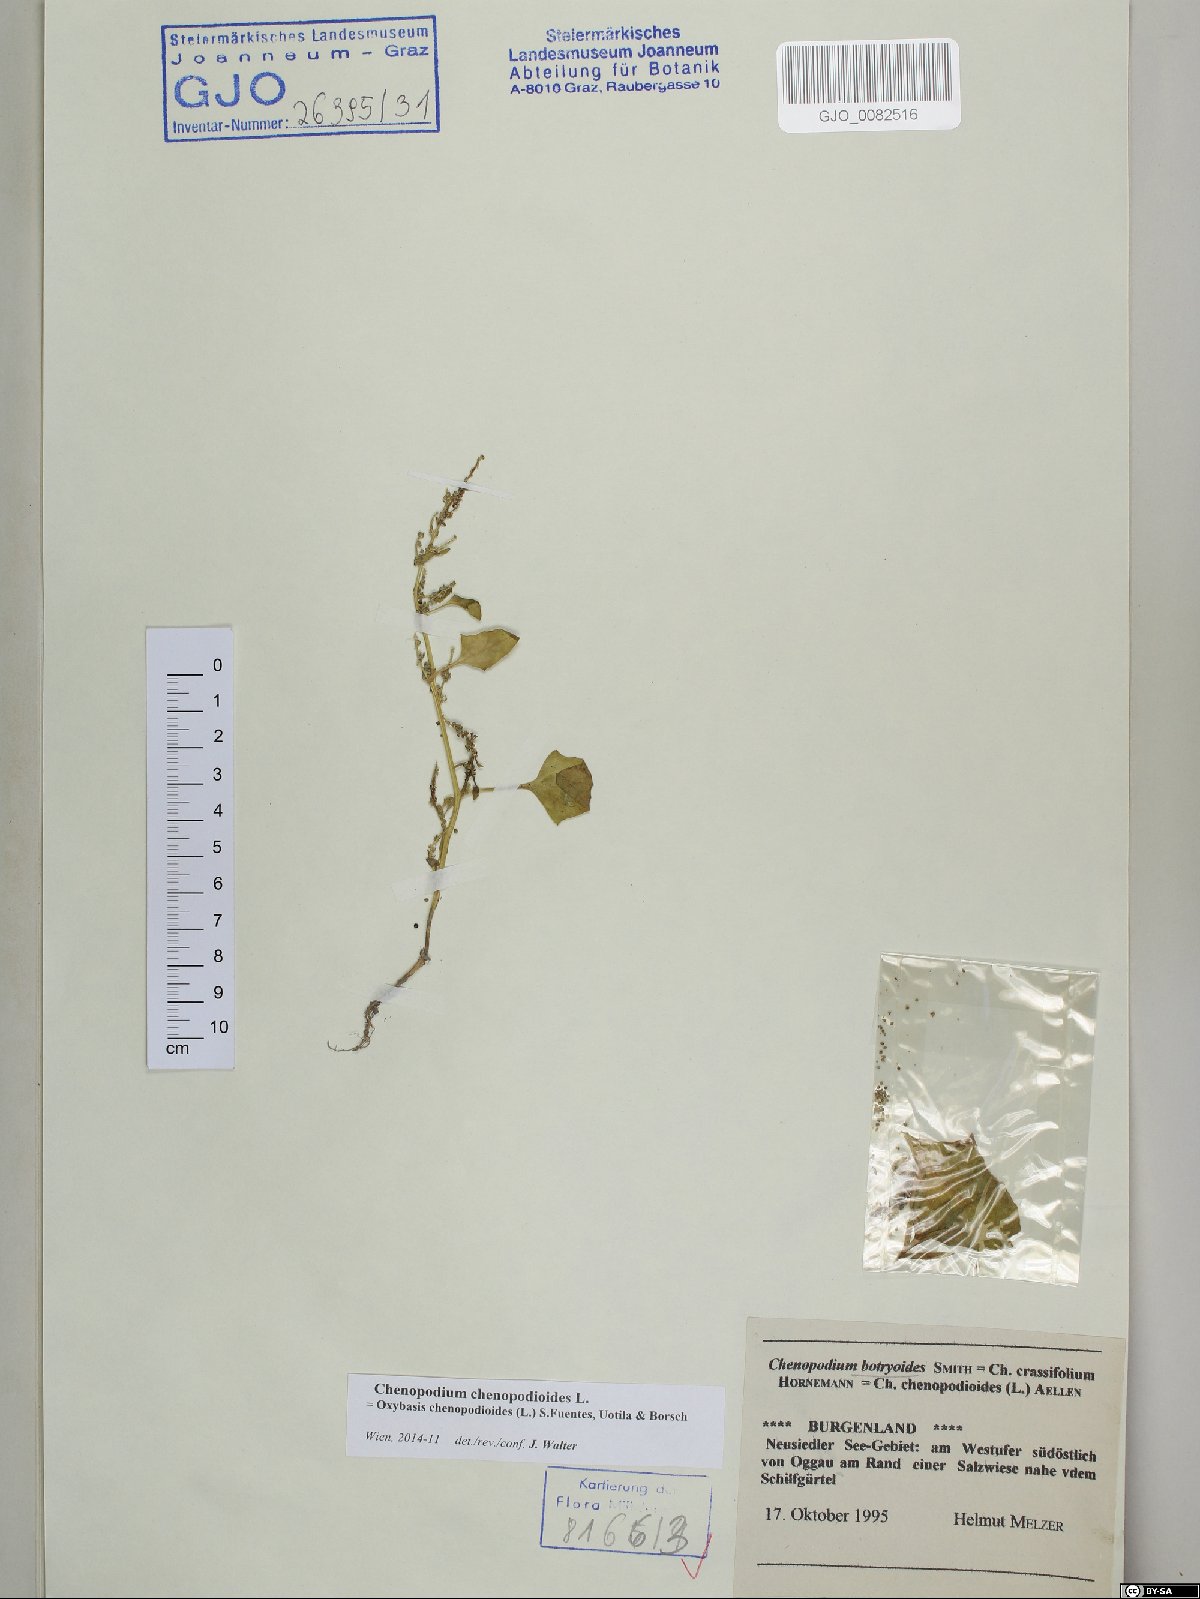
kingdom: Plantae
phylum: Tracheophyta
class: Magnoliopsida
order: Caryophyllales
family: Amaranthaceae
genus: Oxybasis
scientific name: Oxybasis chenopodioides
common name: Saltmarsh goosefoot
